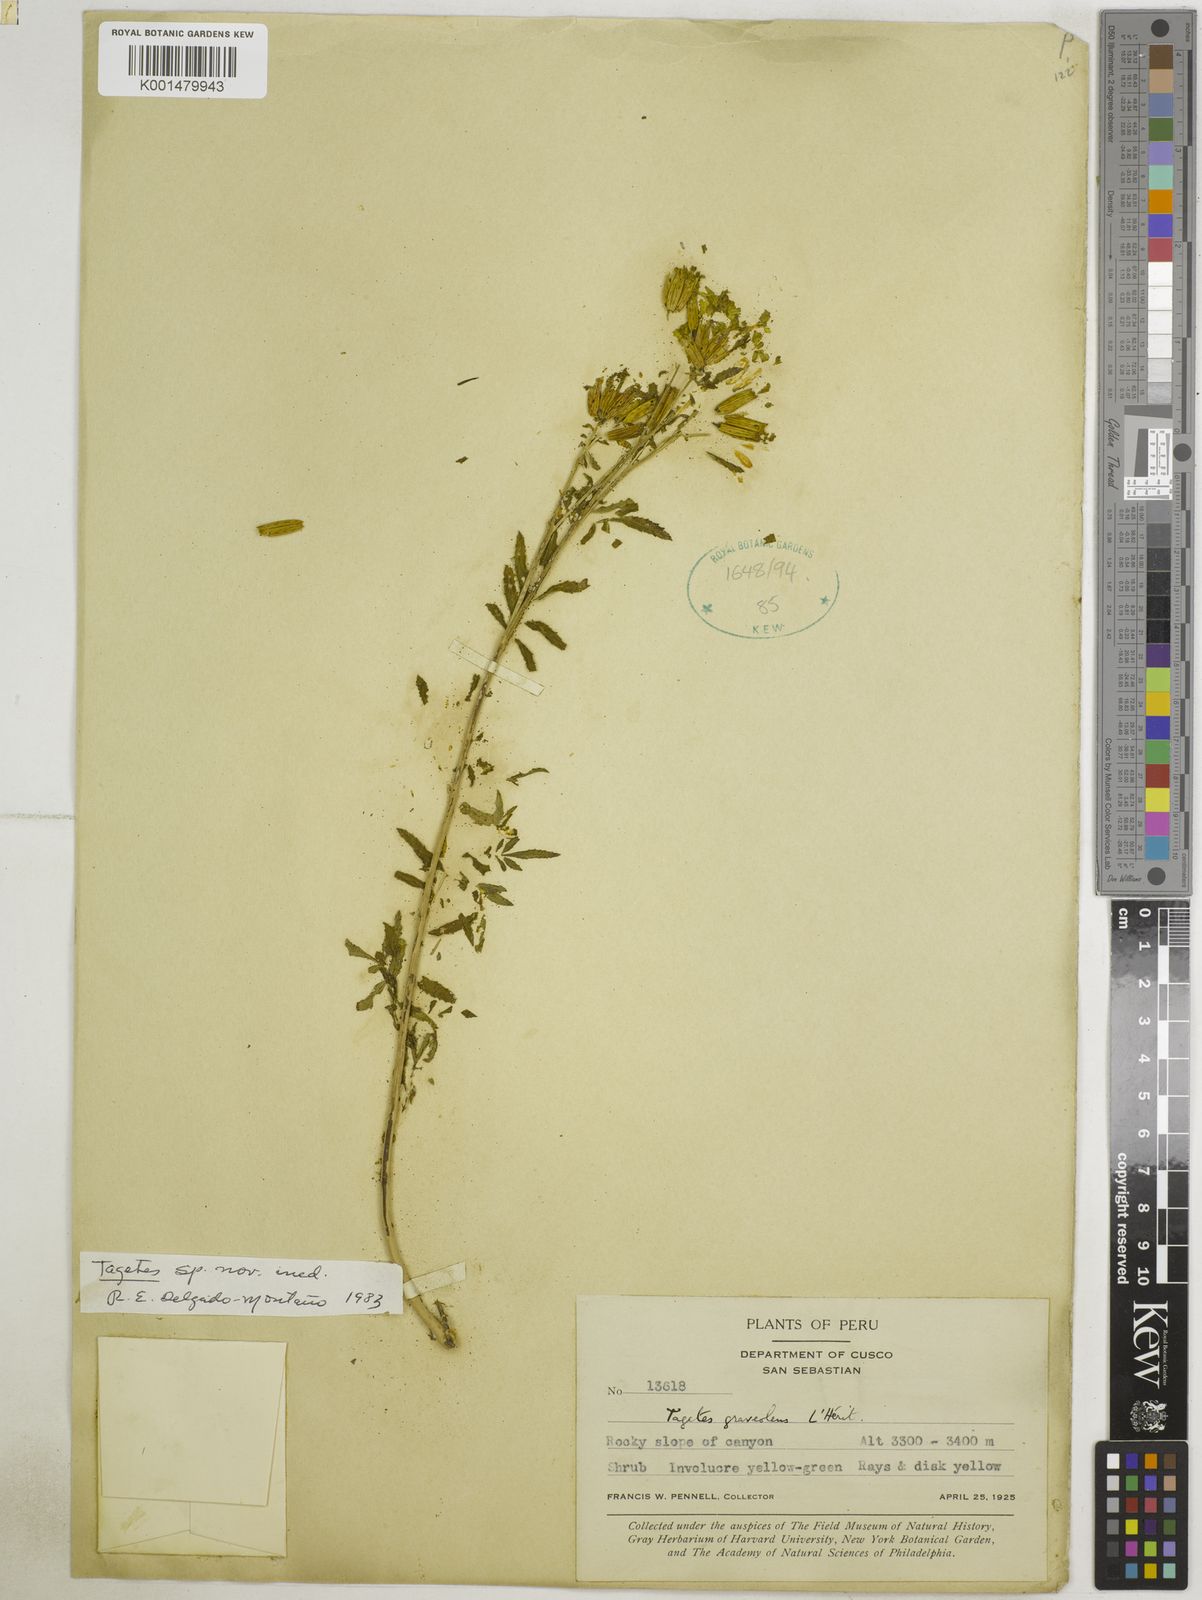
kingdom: Plantae
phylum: Tracheophyta
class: Magnoliopsida
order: Asterales
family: Asteraceae
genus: Tagetes
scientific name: Tagetes terniflora
